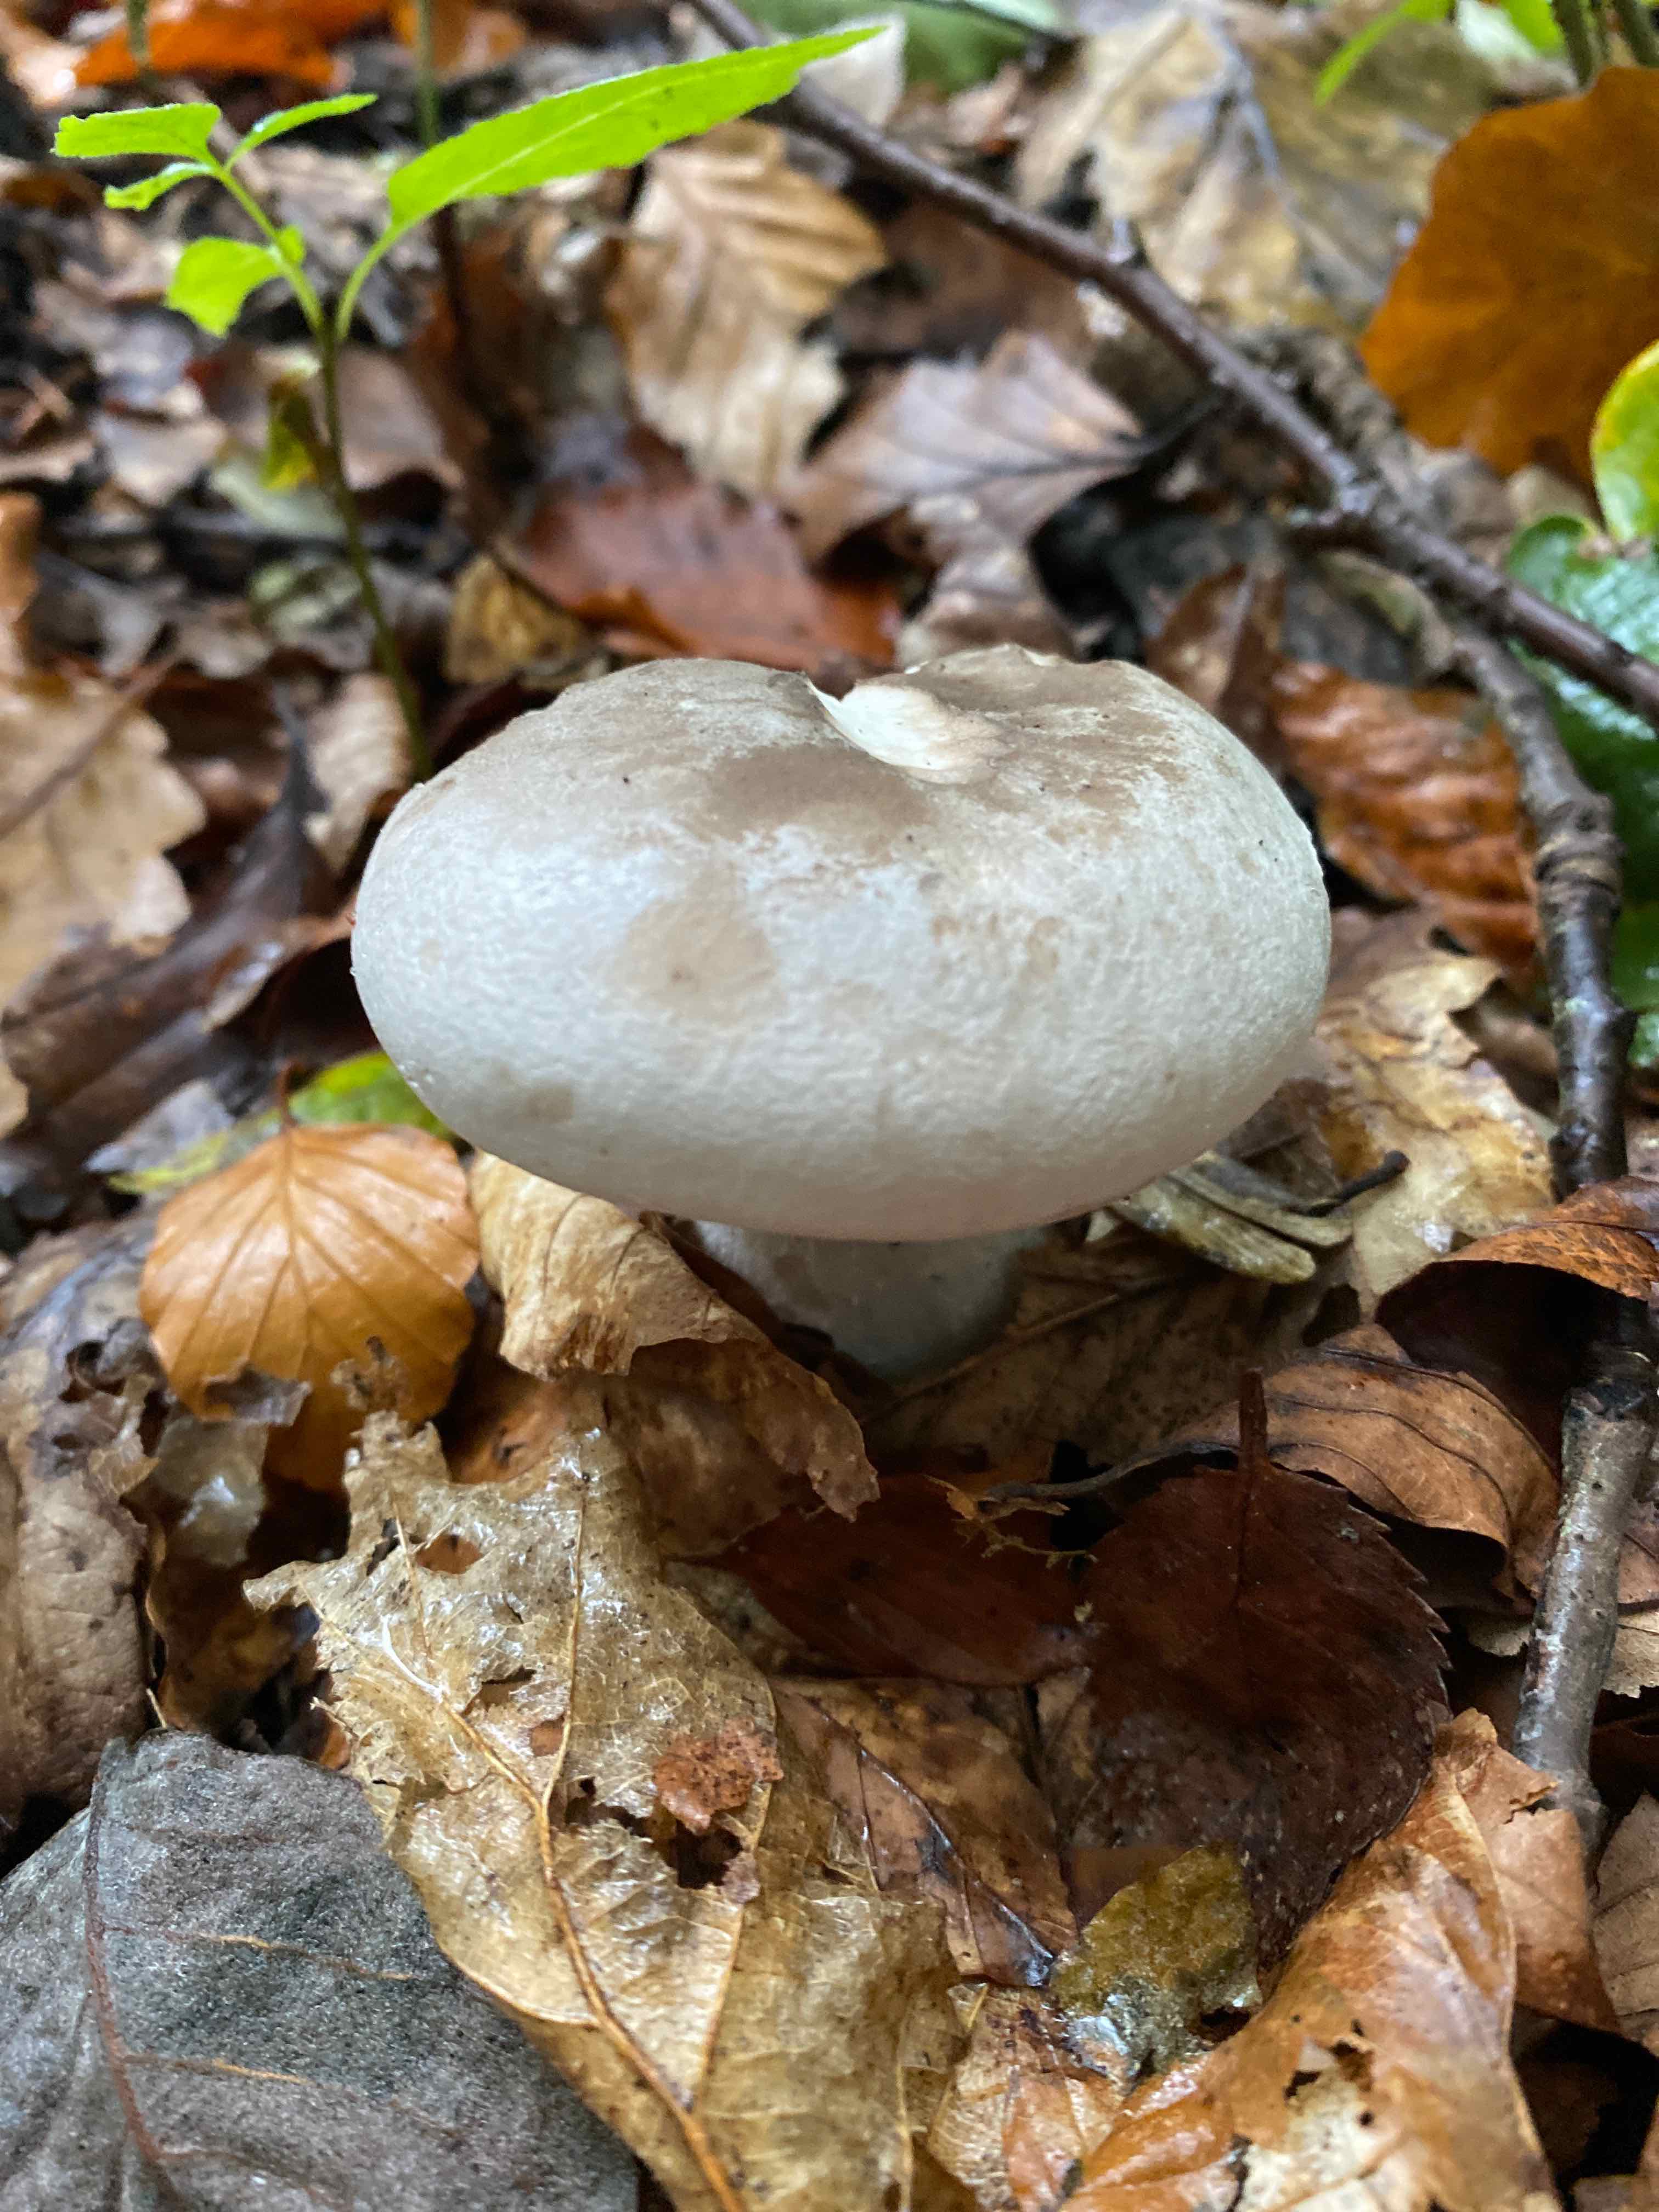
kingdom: Fungi
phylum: Basidiomycota
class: Agaricomycetes
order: Agaricales
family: Tricholomataceae
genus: Clitocybe
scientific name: Clitocybe nebularis
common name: tåge-tragthat
